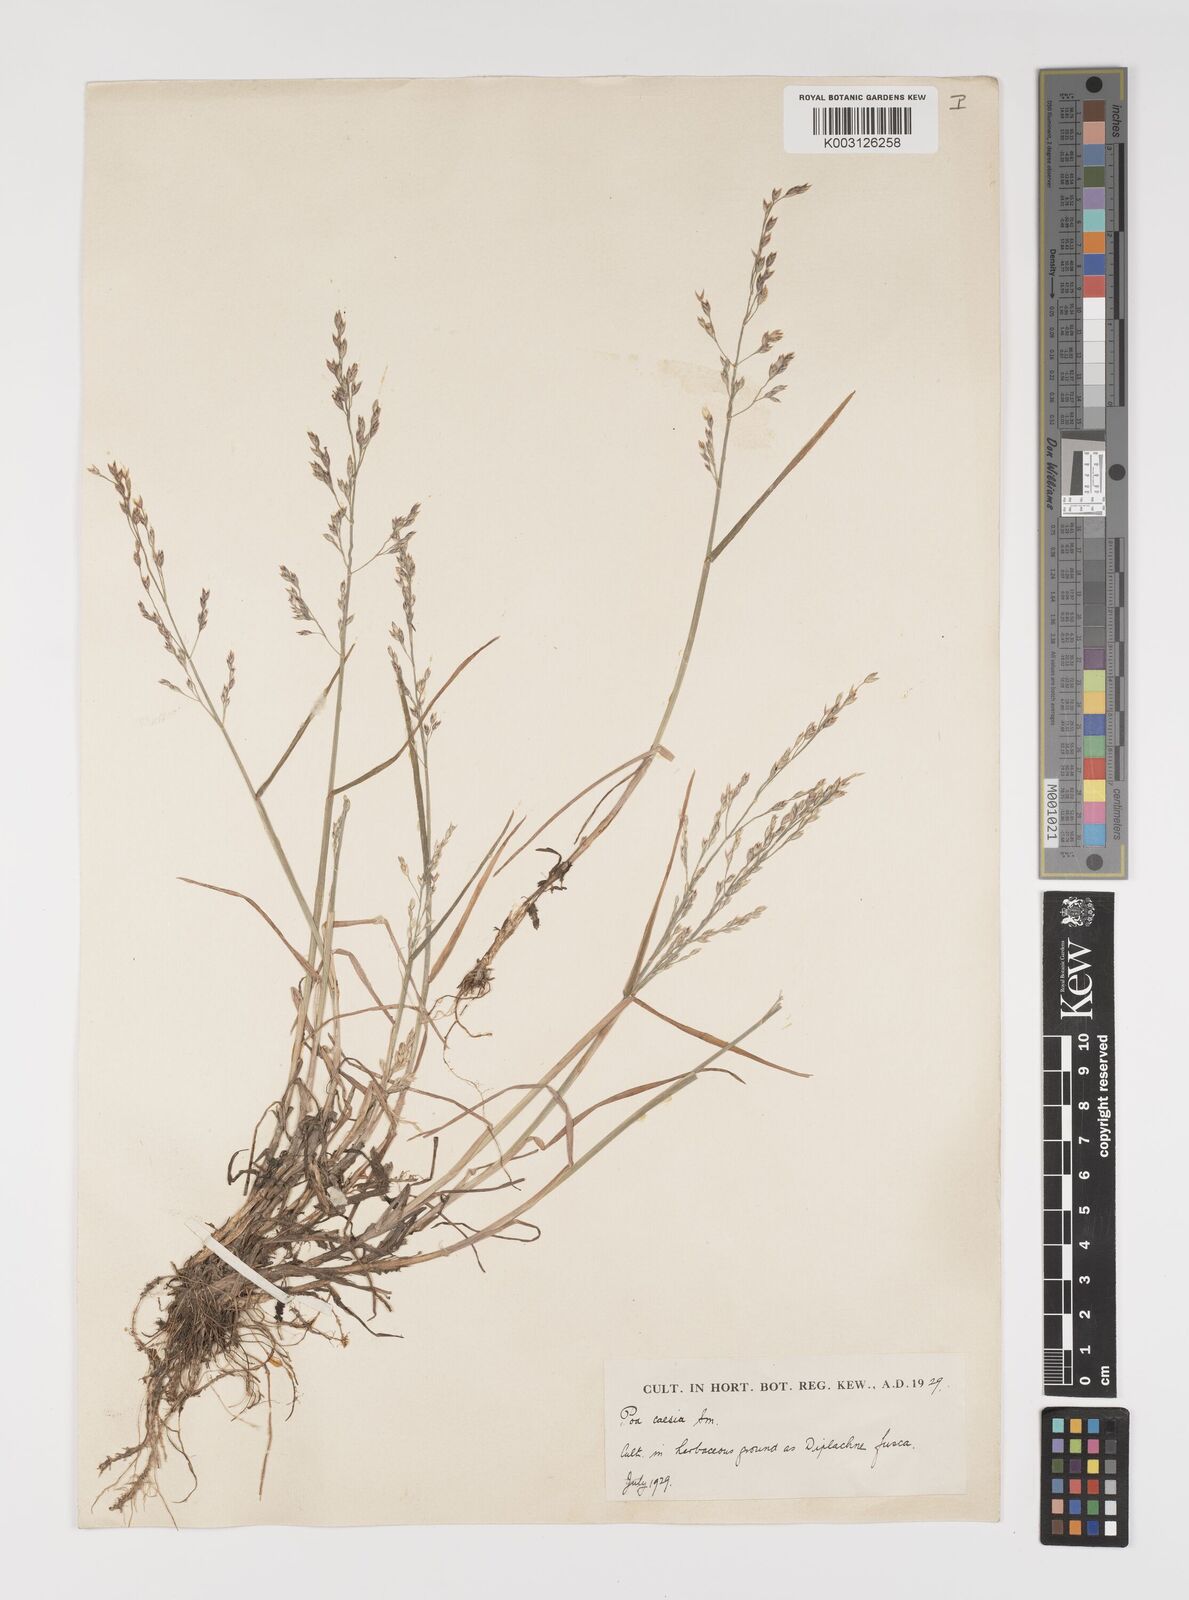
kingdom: Plantae
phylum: Tracheophyta
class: Liliopsida
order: Poales
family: Poaceae
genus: Poa
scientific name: Poa glauca
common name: Glaucous bluegrass
